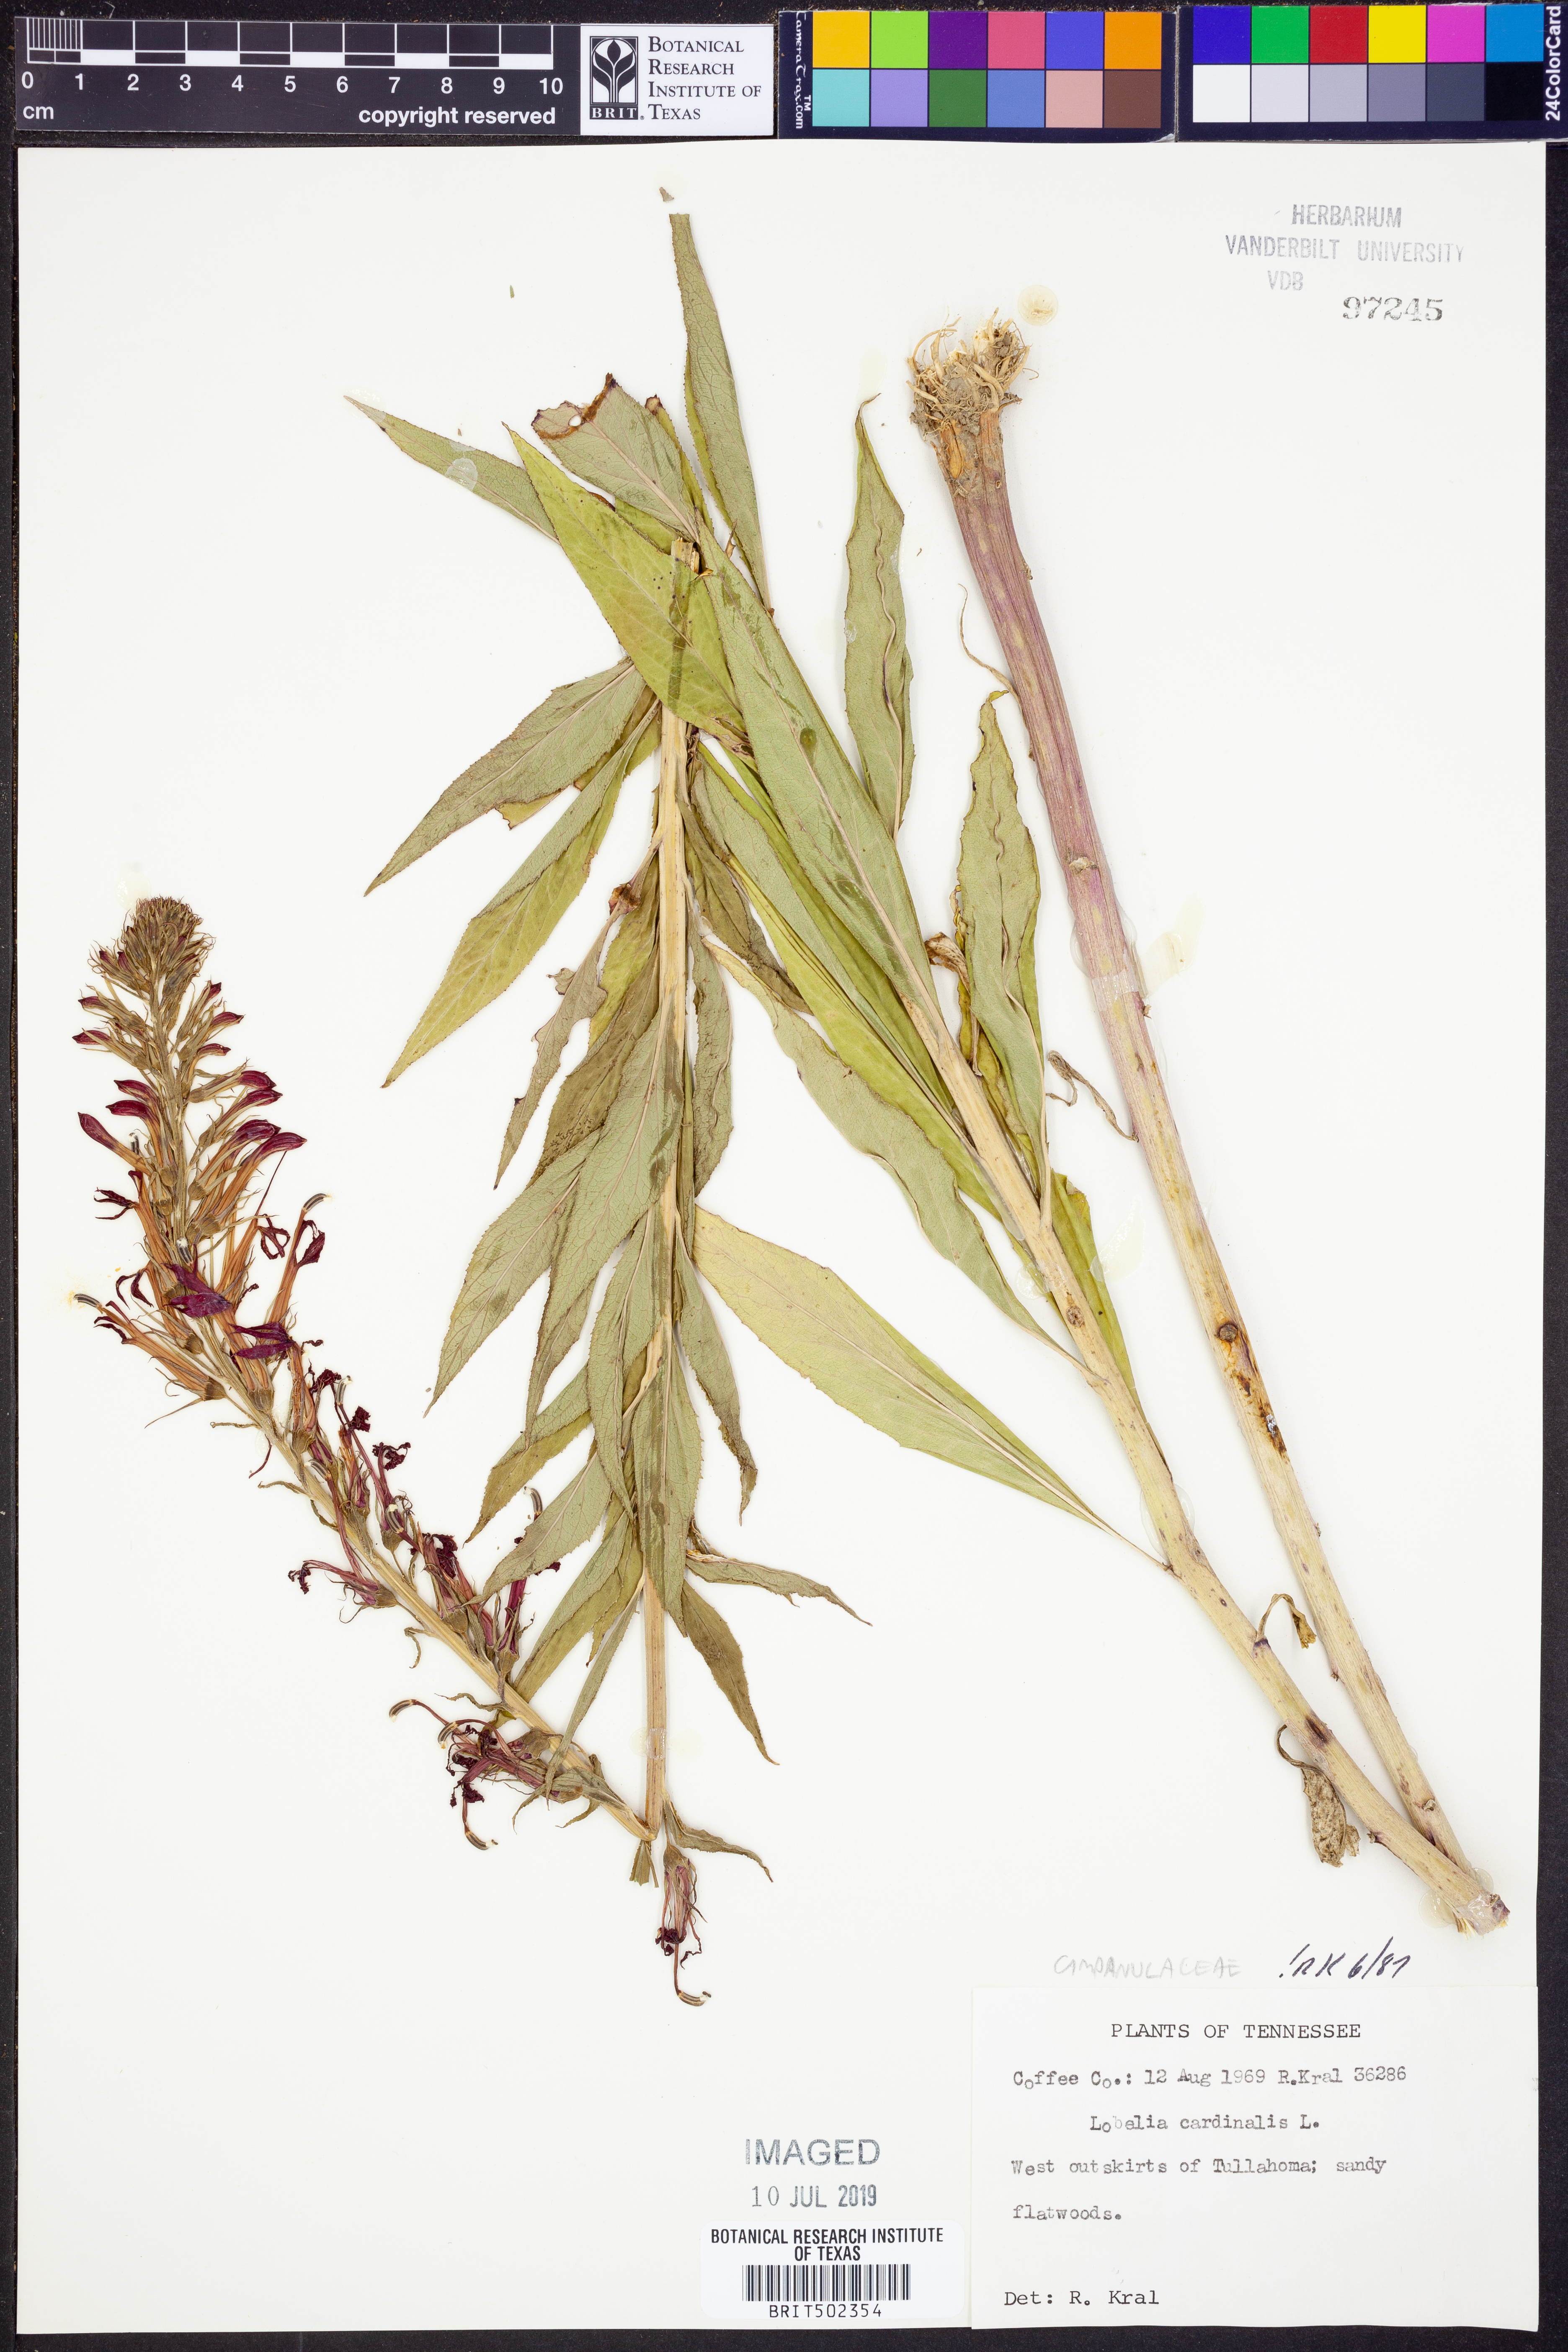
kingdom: Plantae
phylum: Tracheophyta
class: Magnoliopsida
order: Asterales
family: Campanulaceae
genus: Lobelia
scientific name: Lobelia cardinalis
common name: Cardinal flower
